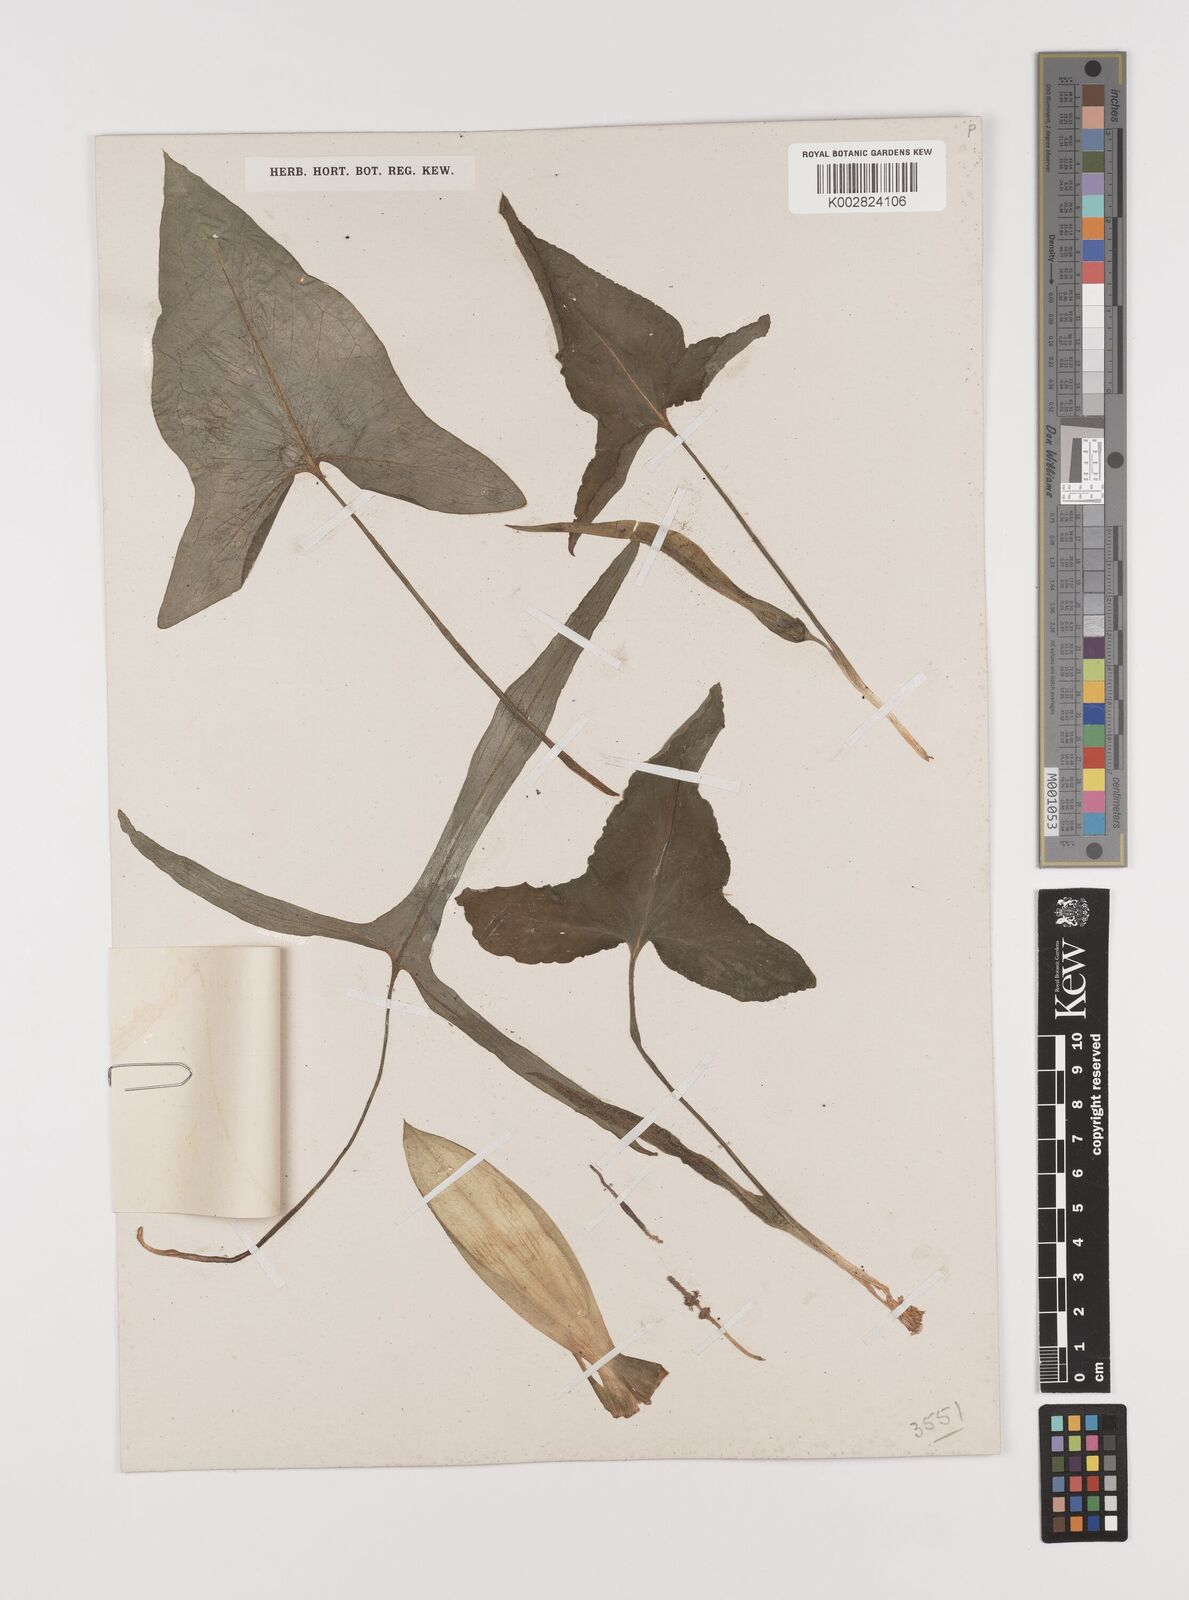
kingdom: Plantae
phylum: Tracheophyta
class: Liliopsida
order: Alismatales
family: Araceae
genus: Theriophonum
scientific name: Theriophonum minutum
